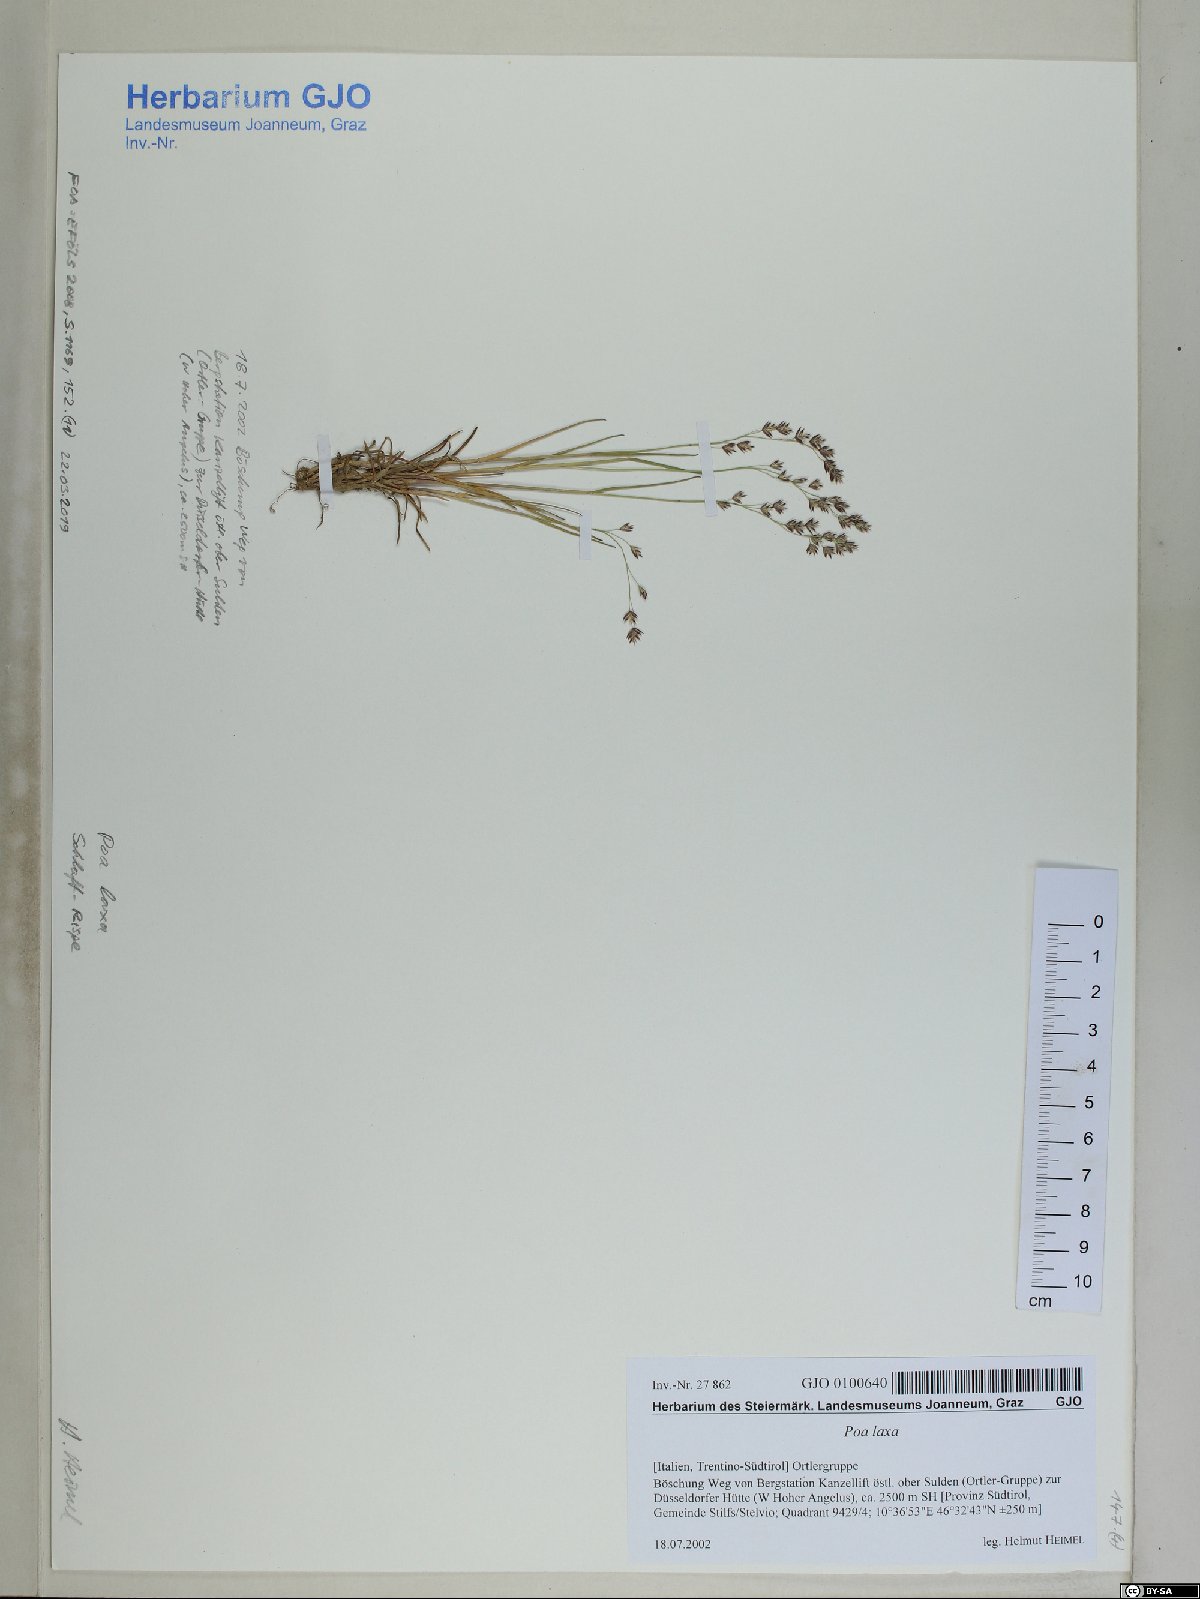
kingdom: Plantae
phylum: Tracheophyta
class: Liliopsida
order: Poales
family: Poaceae
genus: Poa
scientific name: Poa laxa
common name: Lax bluegrass
